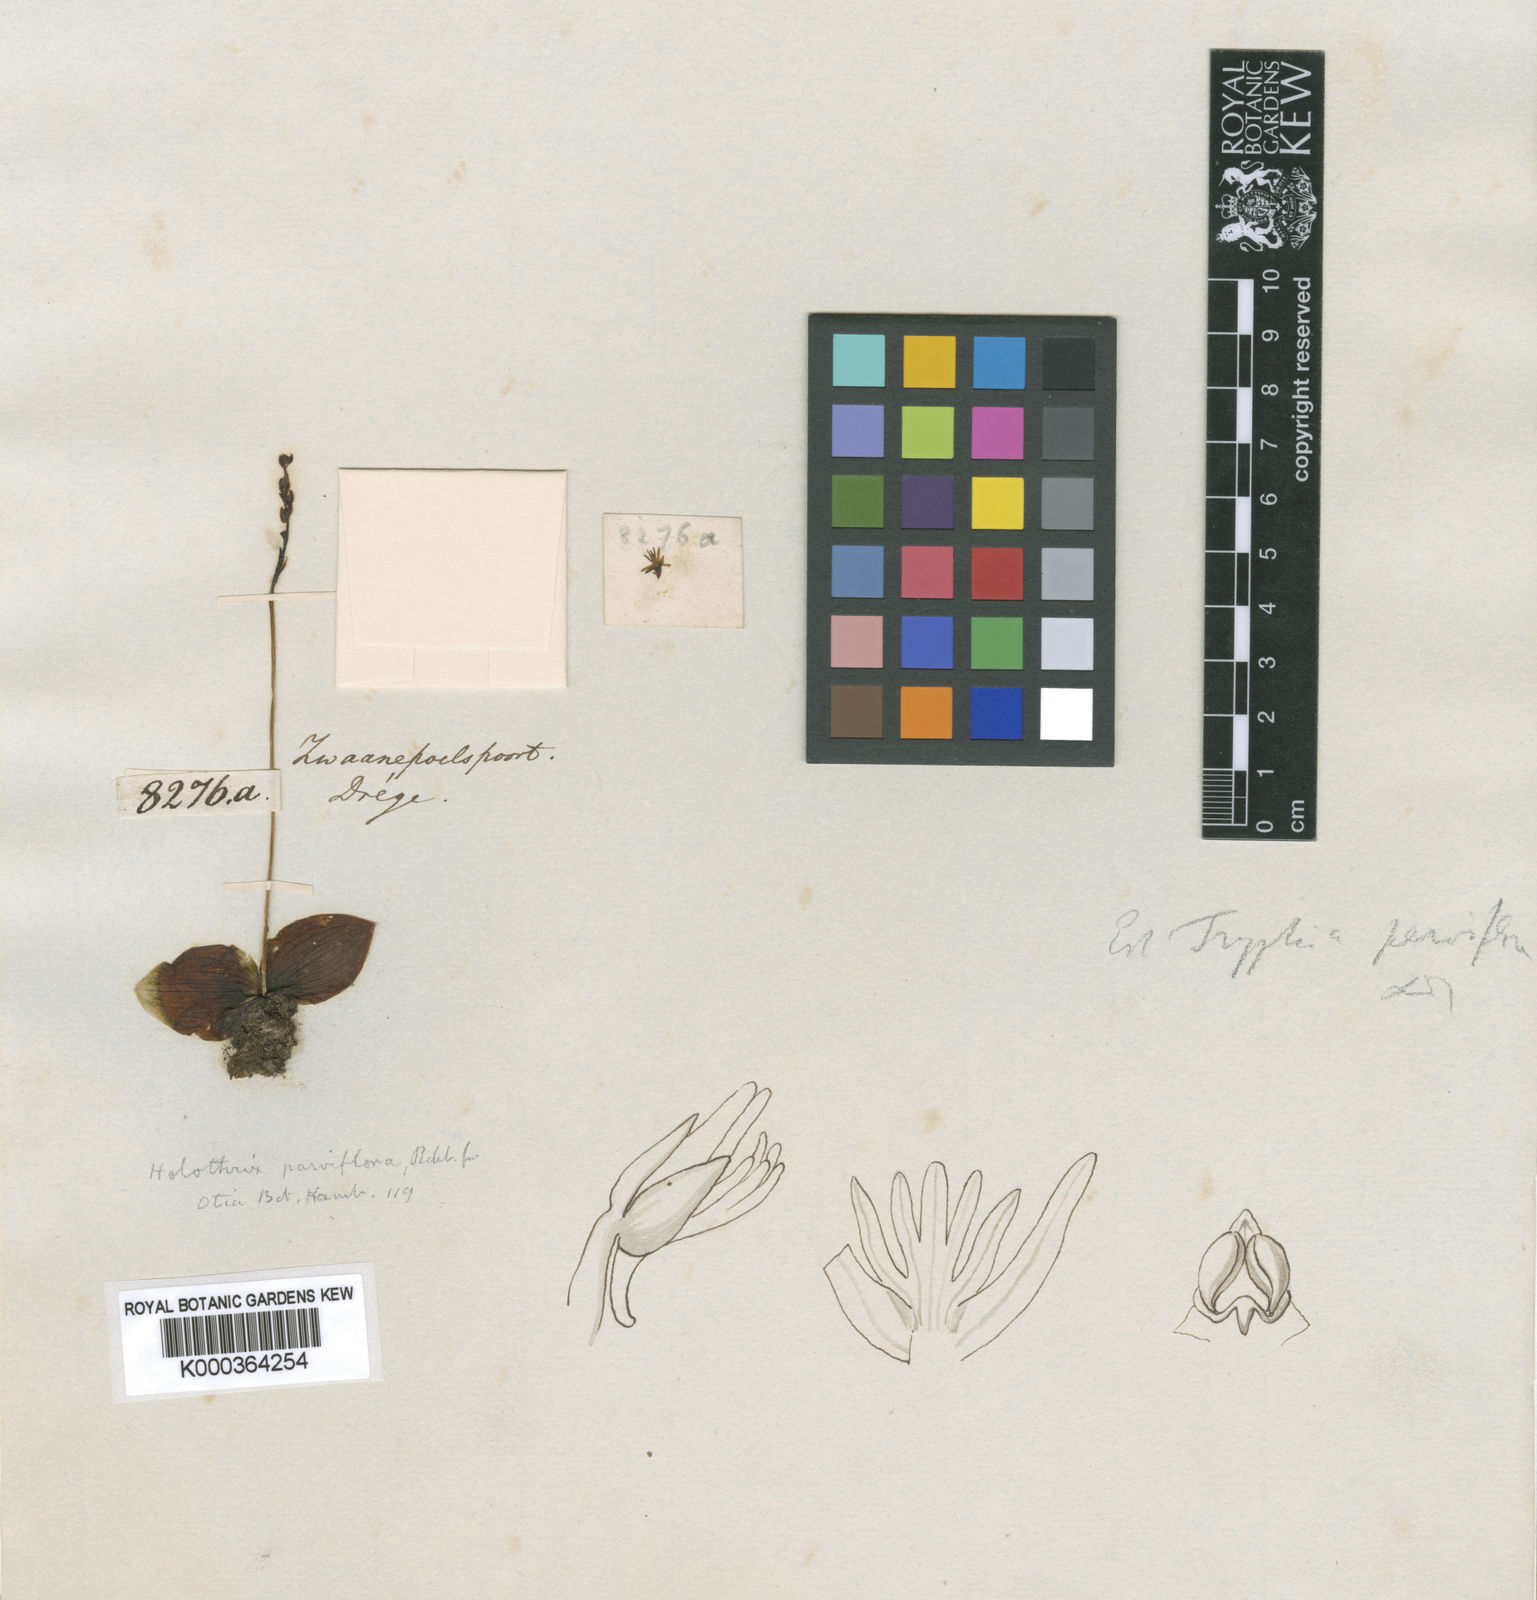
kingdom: Plantae
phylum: Tracheophyta
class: Liliopsida
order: Asparagales
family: Orchidaceae
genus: Holothrix
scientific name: Holothrix parviflora
